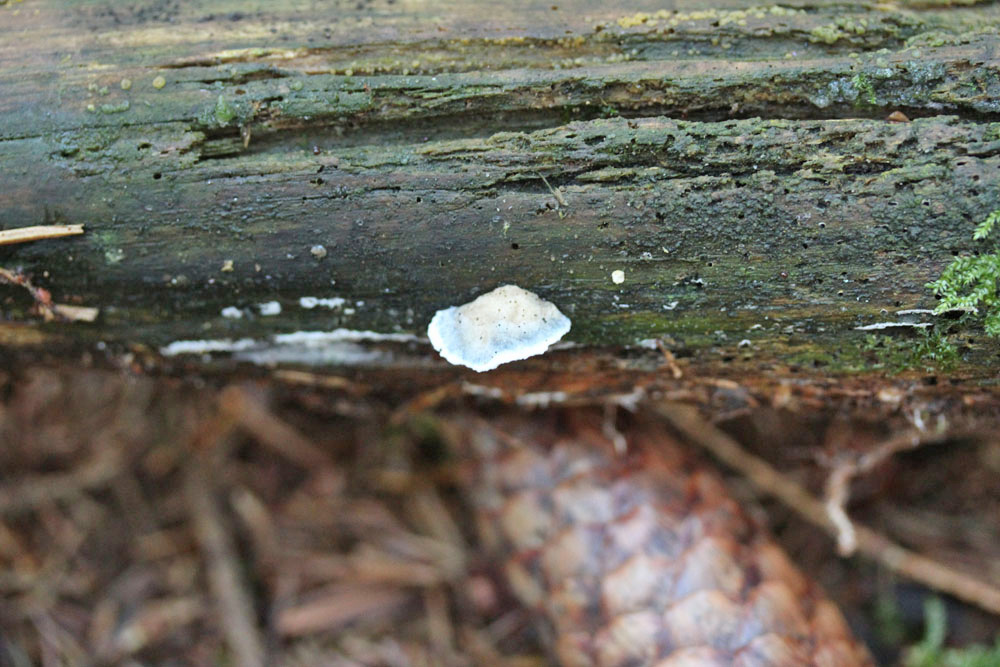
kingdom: Fungi
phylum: Basidiomycota
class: Agaricomycetes
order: Polyporales
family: Polyporaceae
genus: Cyanosporus
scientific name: Cyanosporus caesius
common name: blålig kødporesvamp
